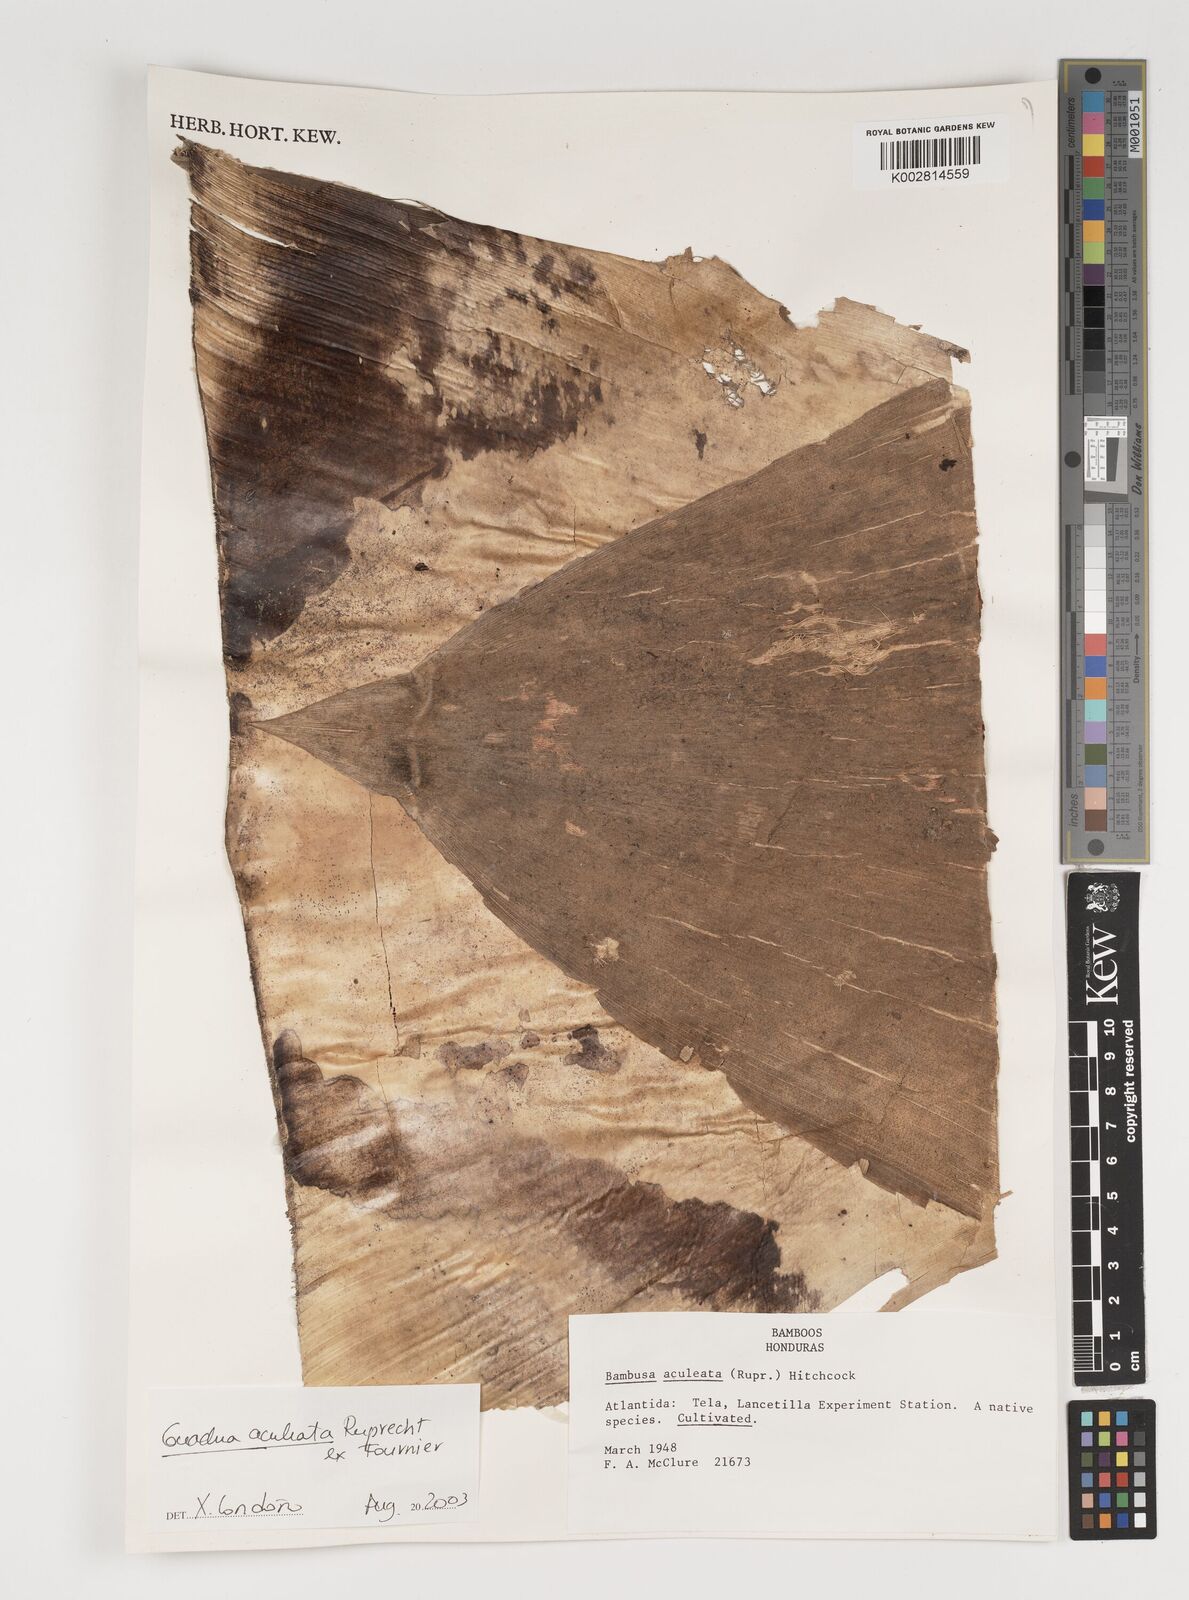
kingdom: Plantae
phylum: Tracheophyta
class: Liliopsida
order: Poales
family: Poaceae
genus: Guadua
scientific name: Guadua aculeata
